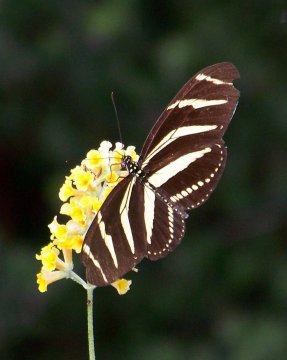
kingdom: Animalia
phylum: Arthropoda
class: Insecta
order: Lepidoptera
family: Nymphalidae
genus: Heliconius
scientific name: Heliconius charithonia
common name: Zebra Longwing
